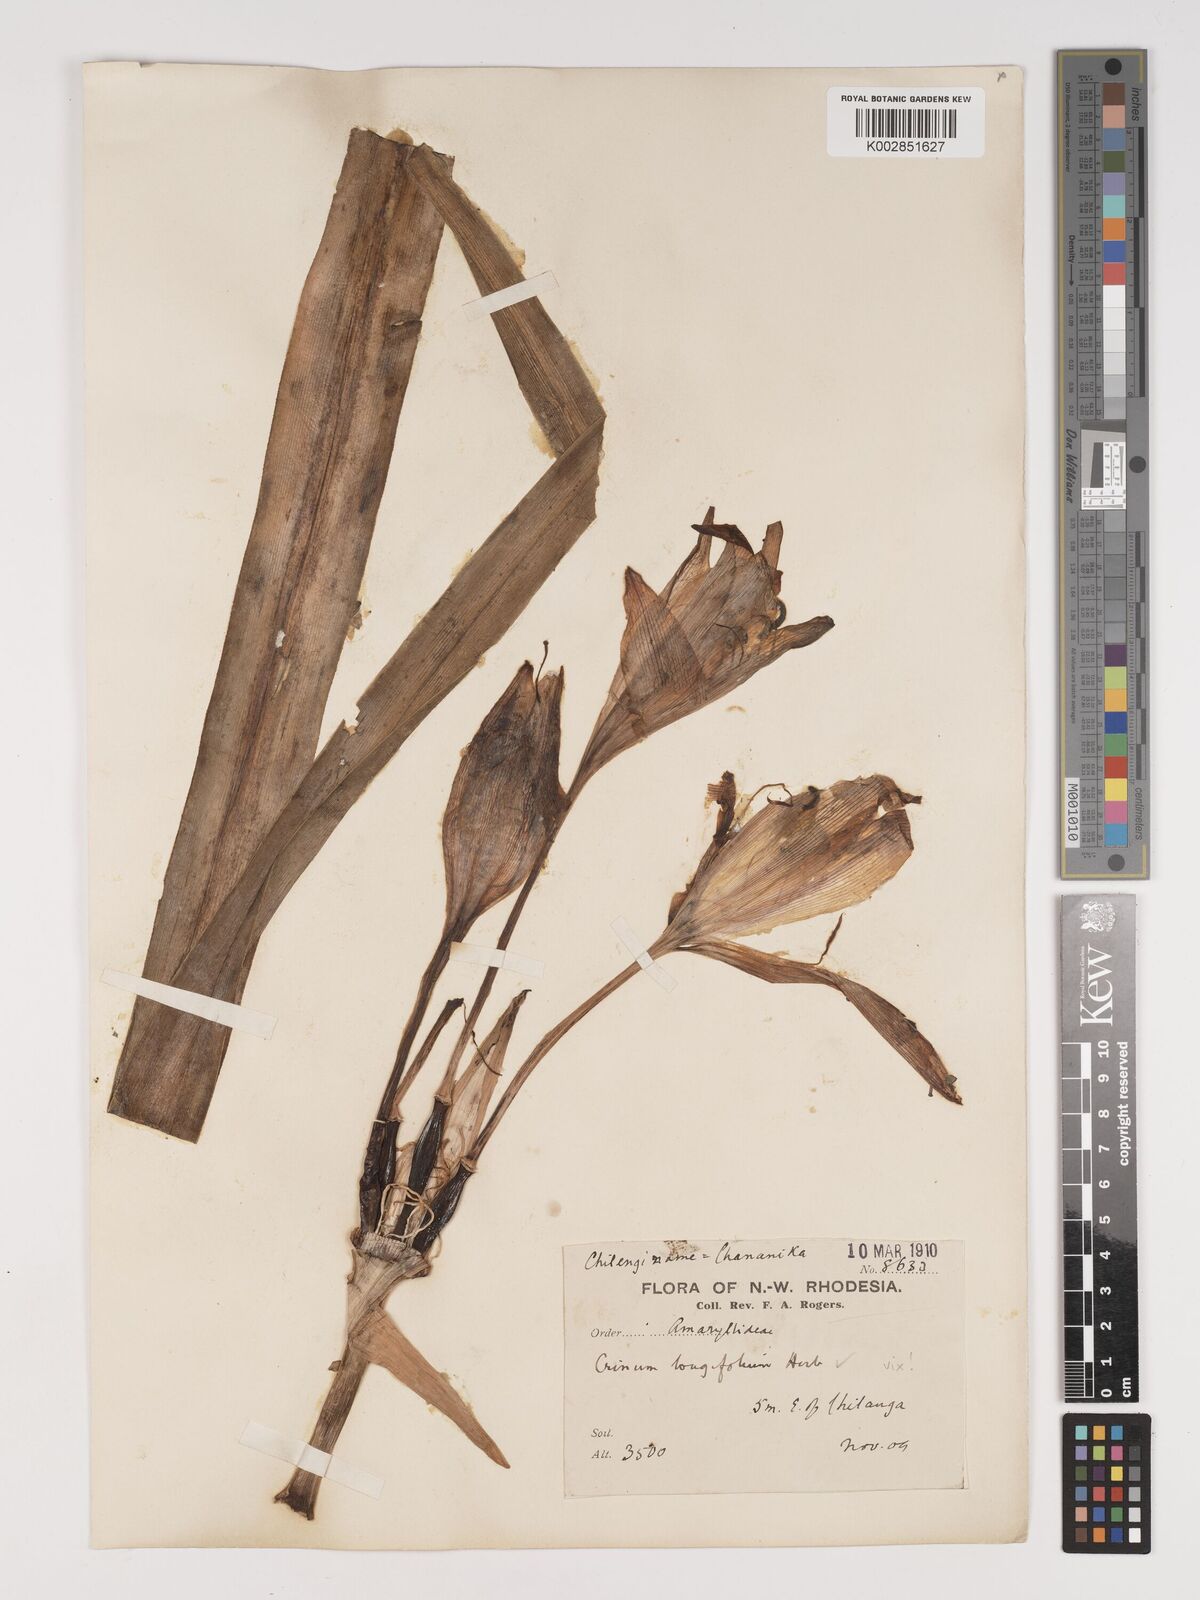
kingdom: Plantae
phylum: Tracheophyta
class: Liliopsida
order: Asparagales
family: Amaryllidaceae
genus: Crinum
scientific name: Crinum macowanii
